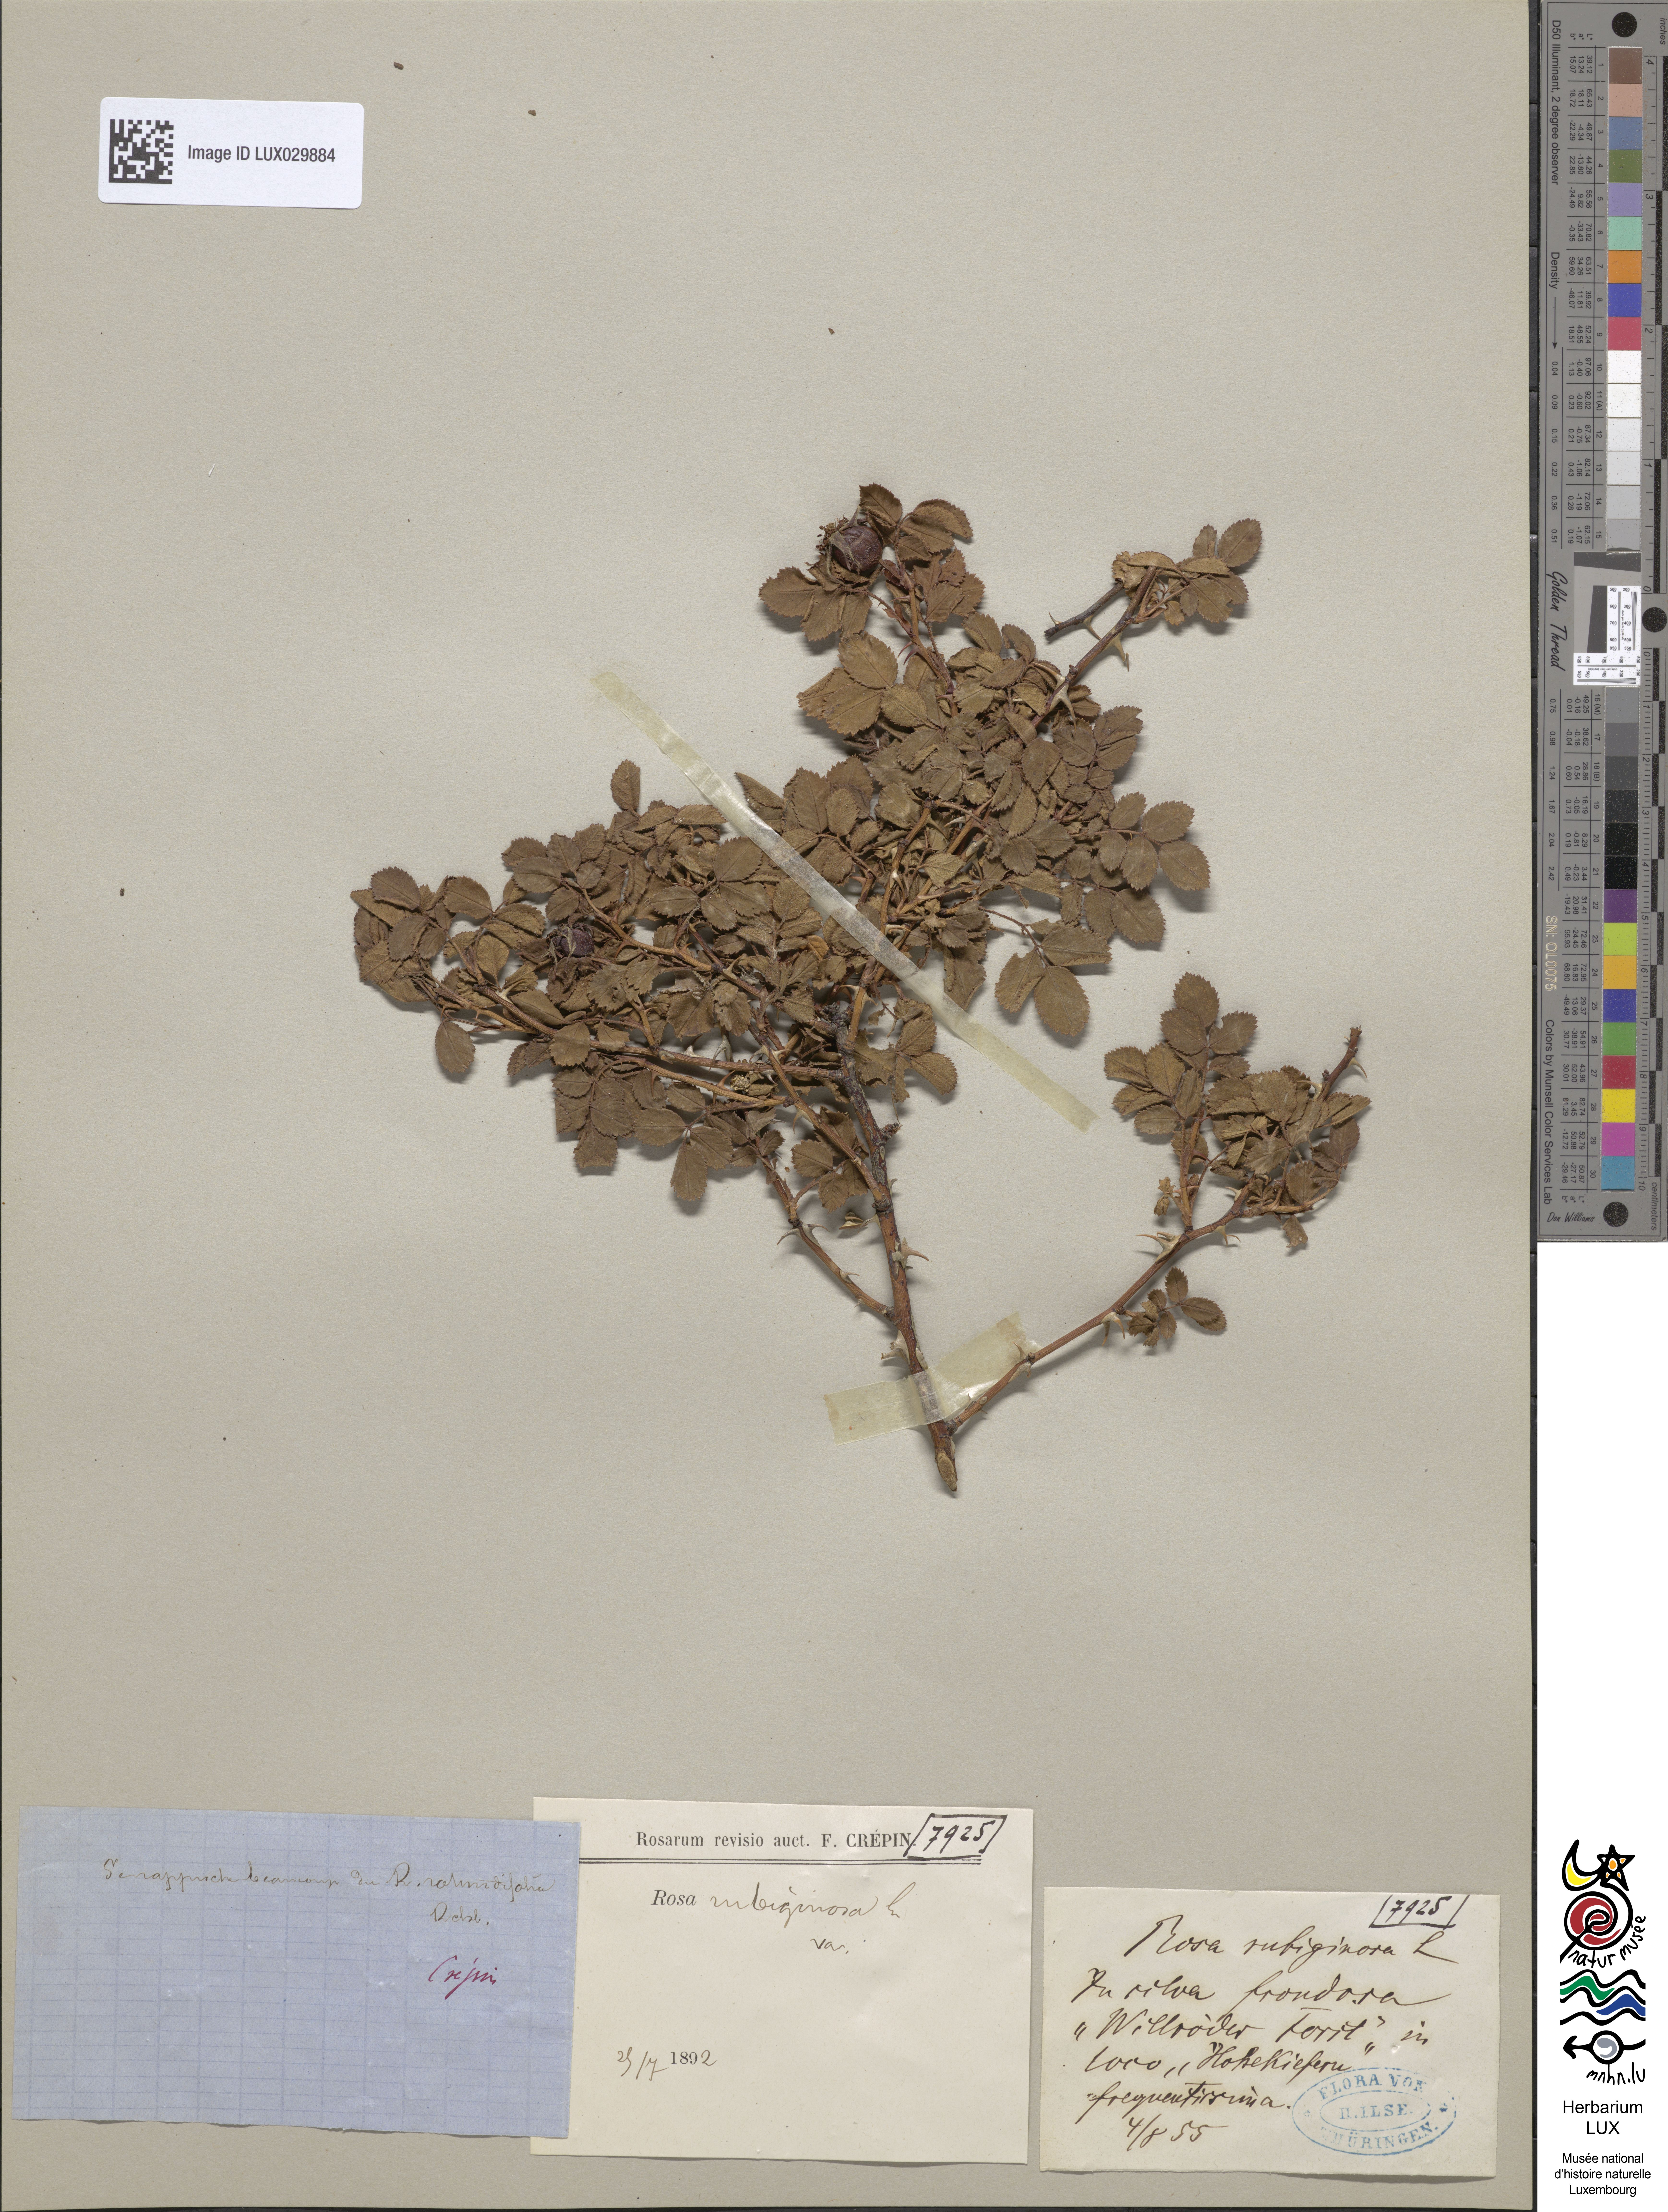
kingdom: Plantae
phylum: Tracheophyta
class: Magnoliopsida
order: Rosales
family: Rosaceae
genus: Rosa
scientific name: Rosa rubiginosa
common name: Sweet-briar
